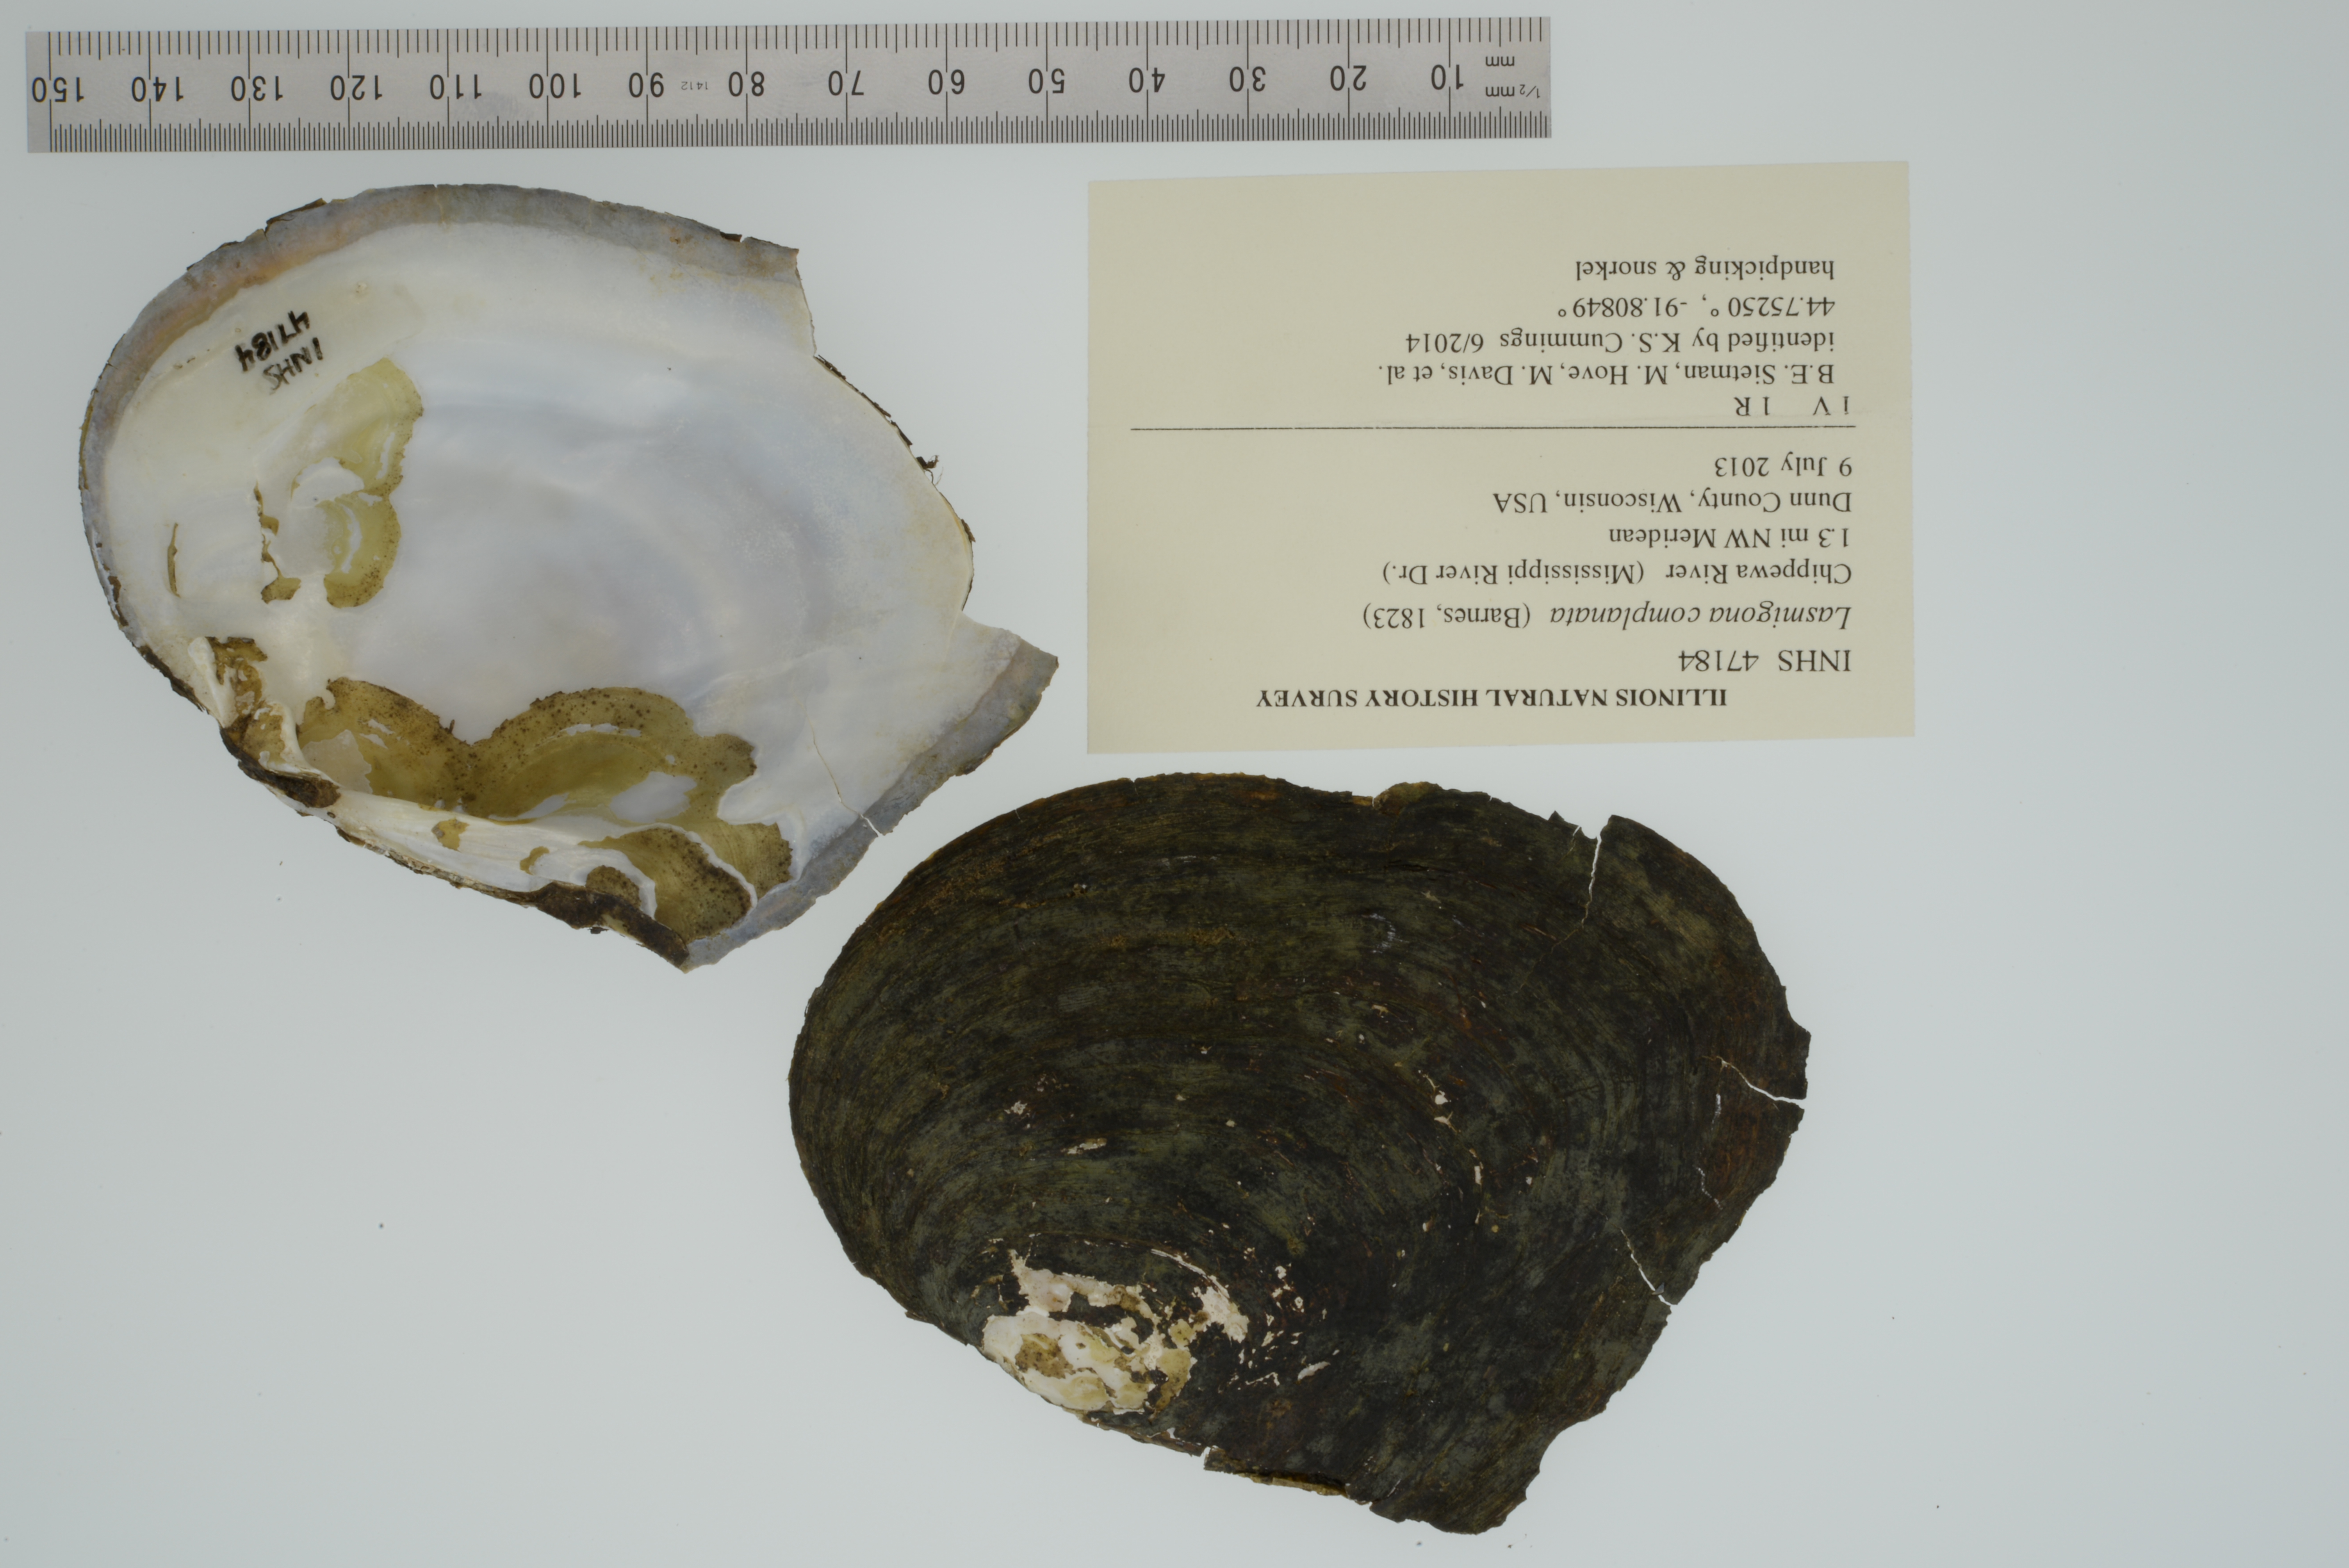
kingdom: Animalia
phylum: Mollusca
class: Bivalvia
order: Unionida
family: Unionidae
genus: Lasmigona
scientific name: Lasmigona complanata
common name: White heelsplitter
